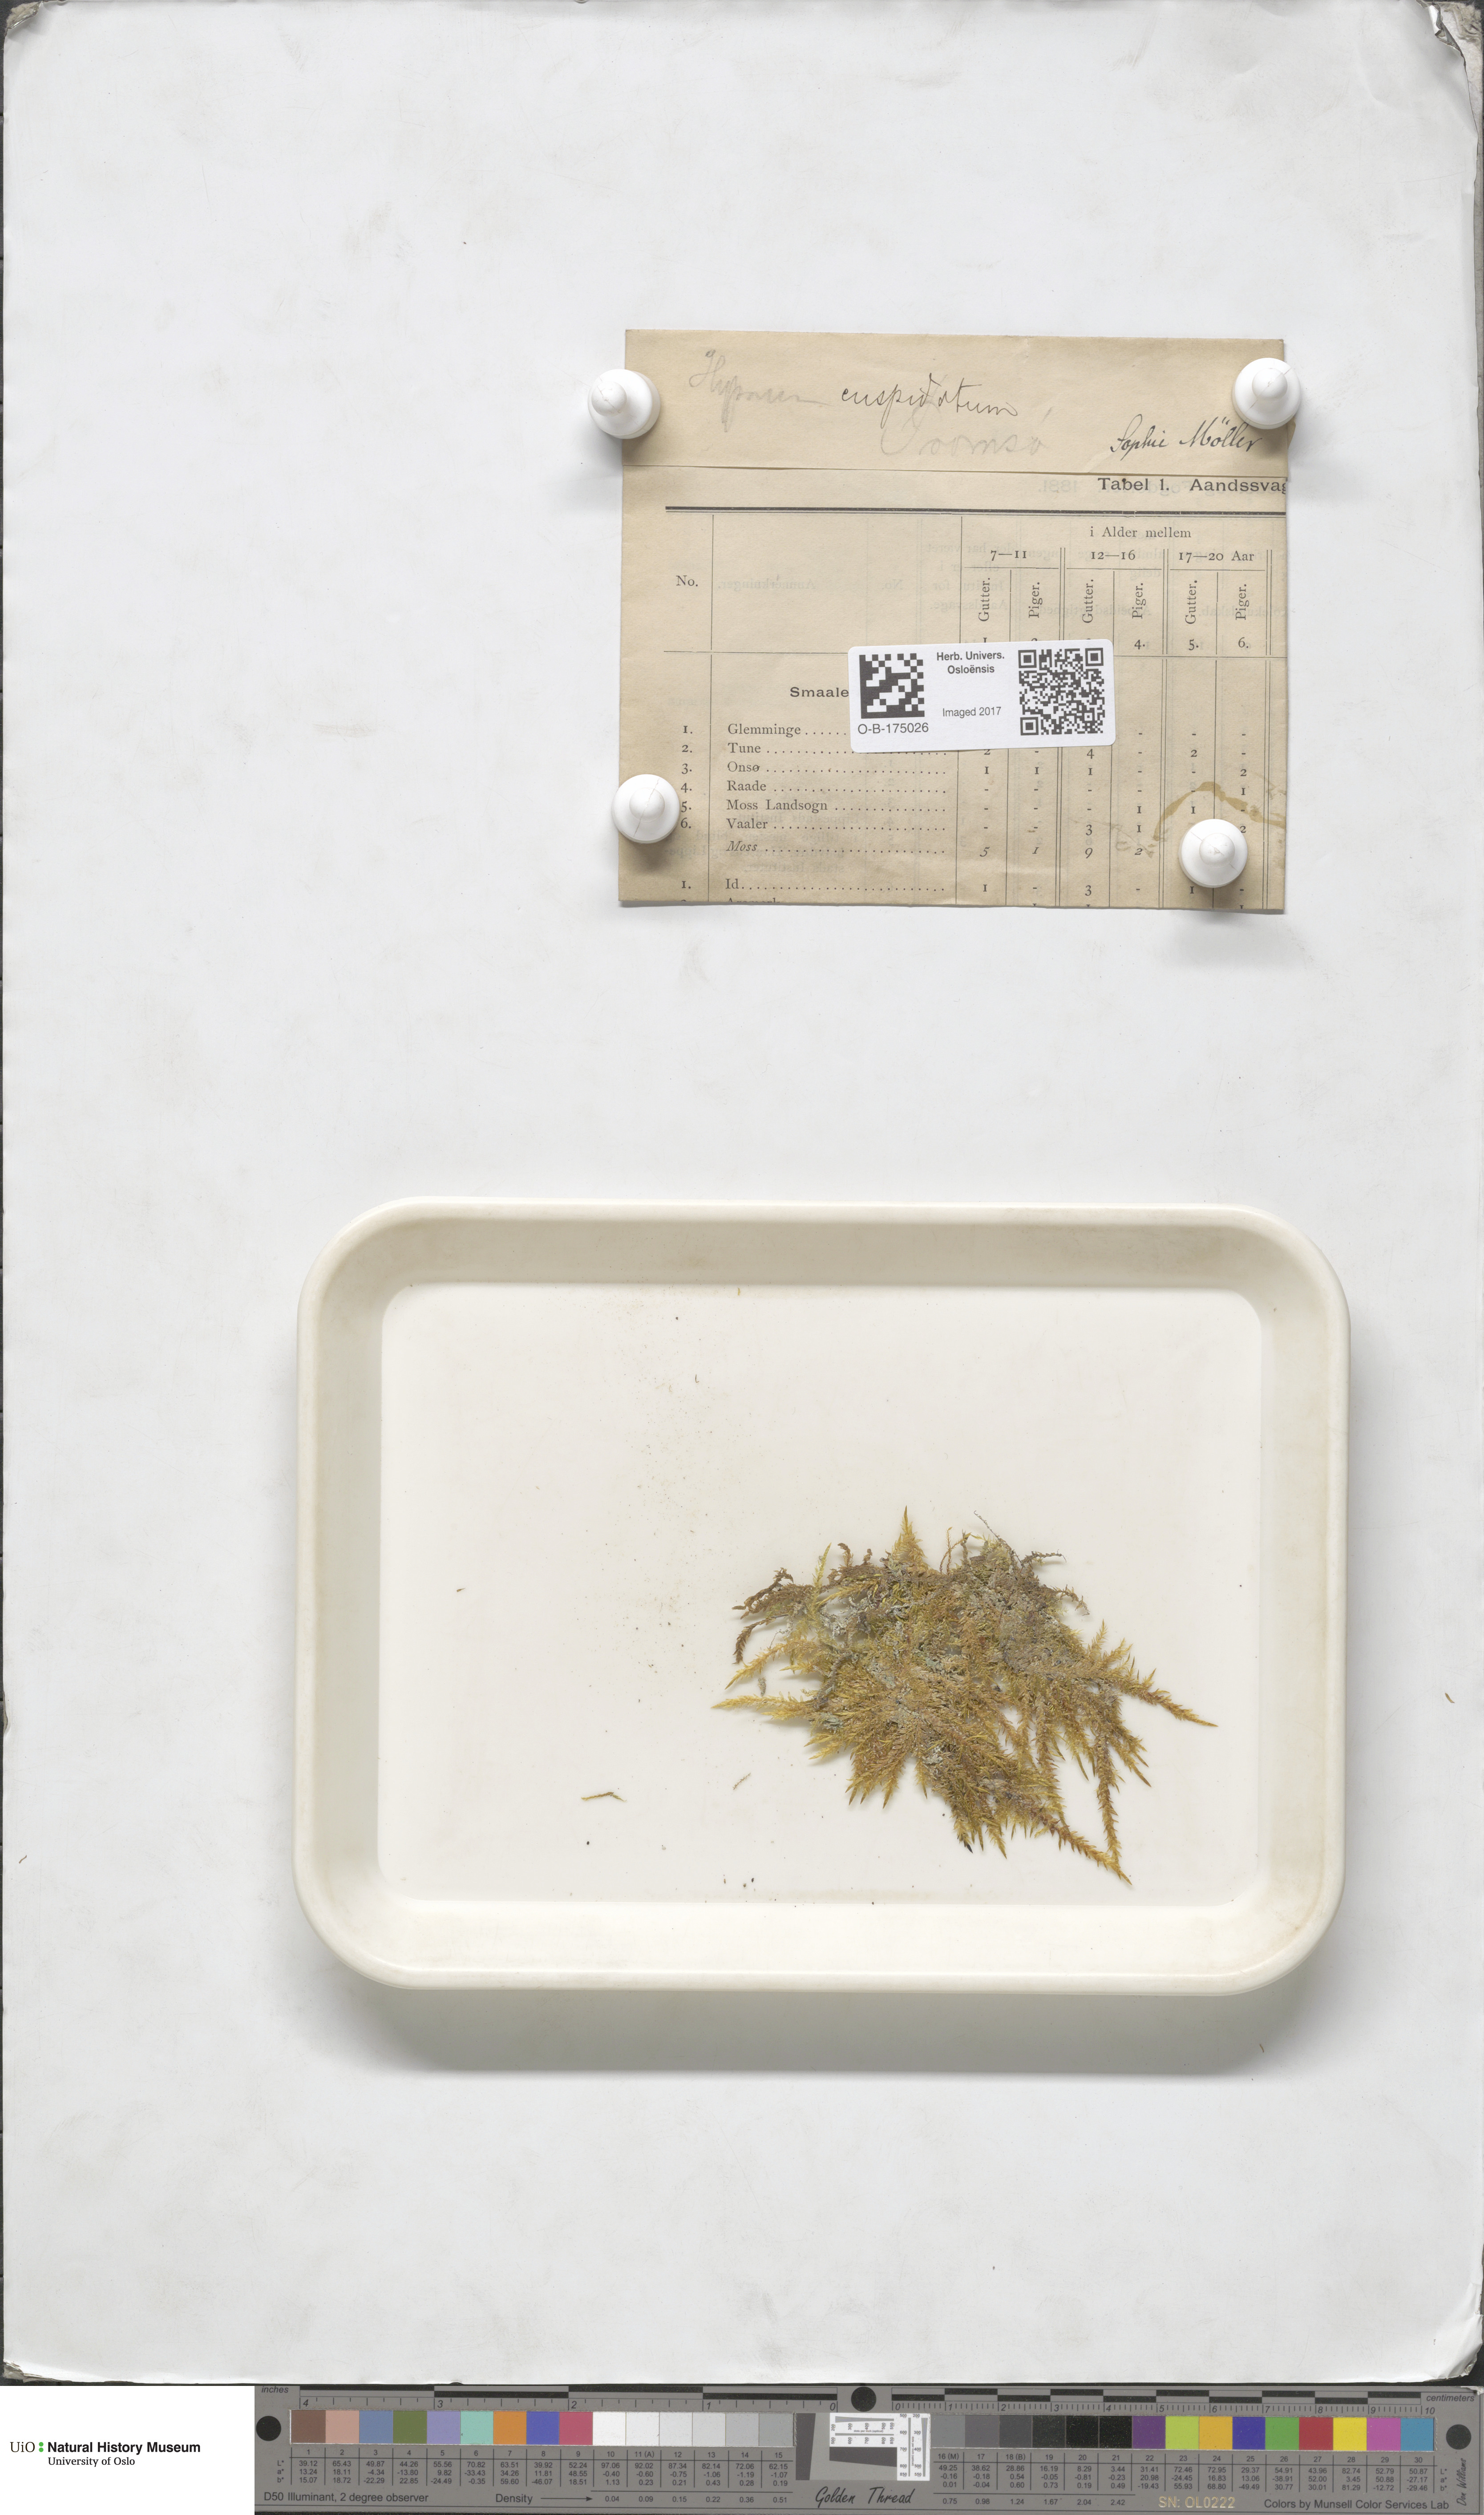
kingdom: Plantae
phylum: Bryophyta
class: Bryopsida
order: Hypnales
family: Pylaisiaceae
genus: Calliergonella
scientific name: Calliergonella cuspidata
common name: Common large wetland moss
